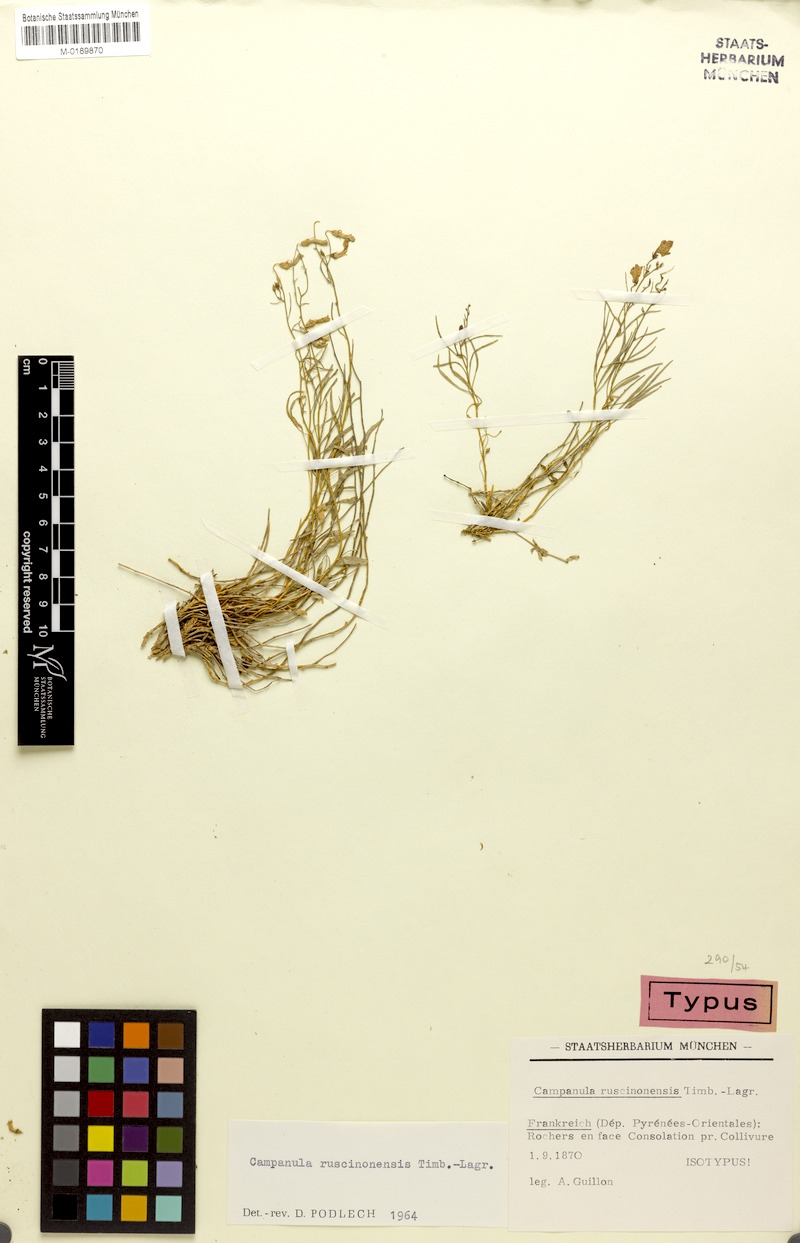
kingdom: Plantae
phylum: Tracheophyta
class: Magnoliopsida
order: Asterales
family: Campanulaceae
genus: Campanula
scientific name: Campanula ruscinonensis
